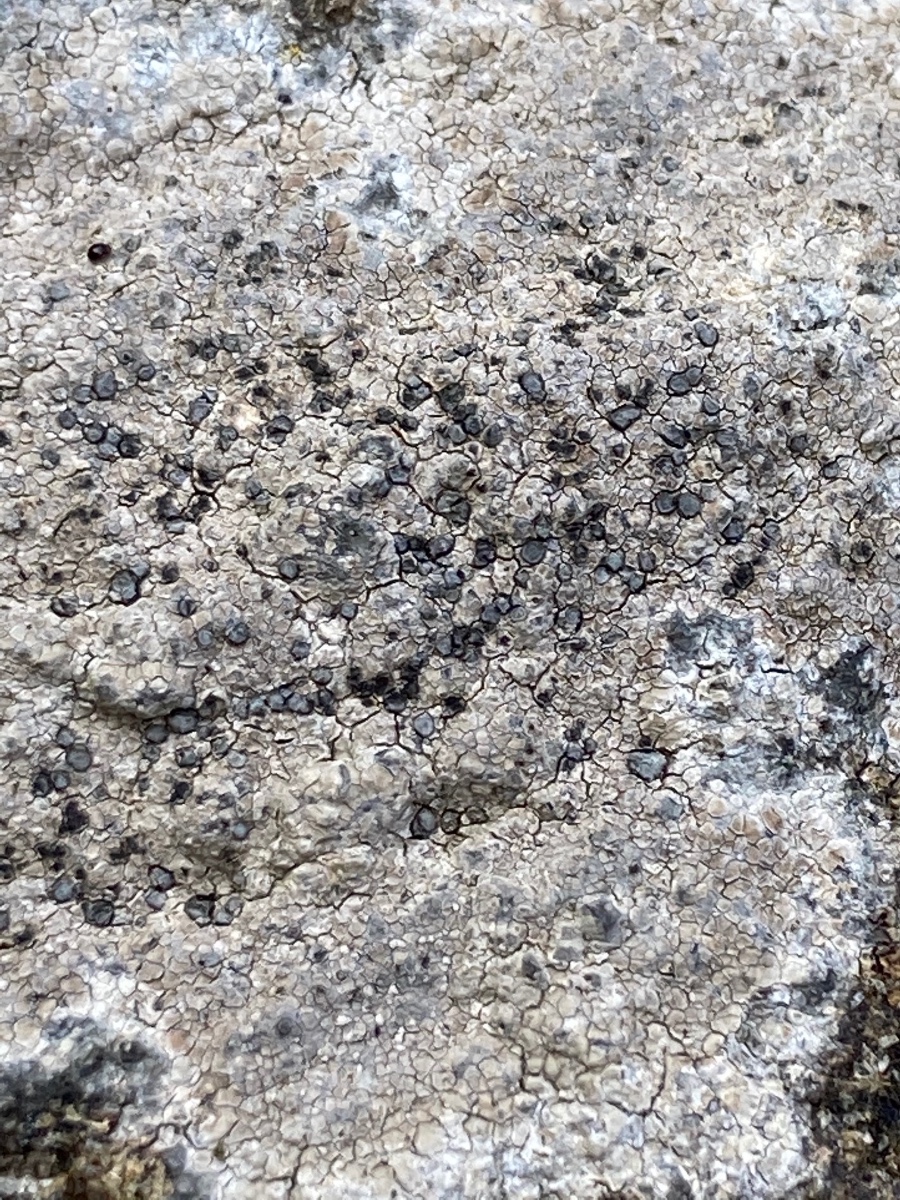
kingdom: Fungi
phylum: Ascomycota
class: Lecanoromycetes
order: Lecideales
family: Lecideaceae
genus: Lecidea
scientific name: Lecidea fuscoatra
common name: rudret skivelav
